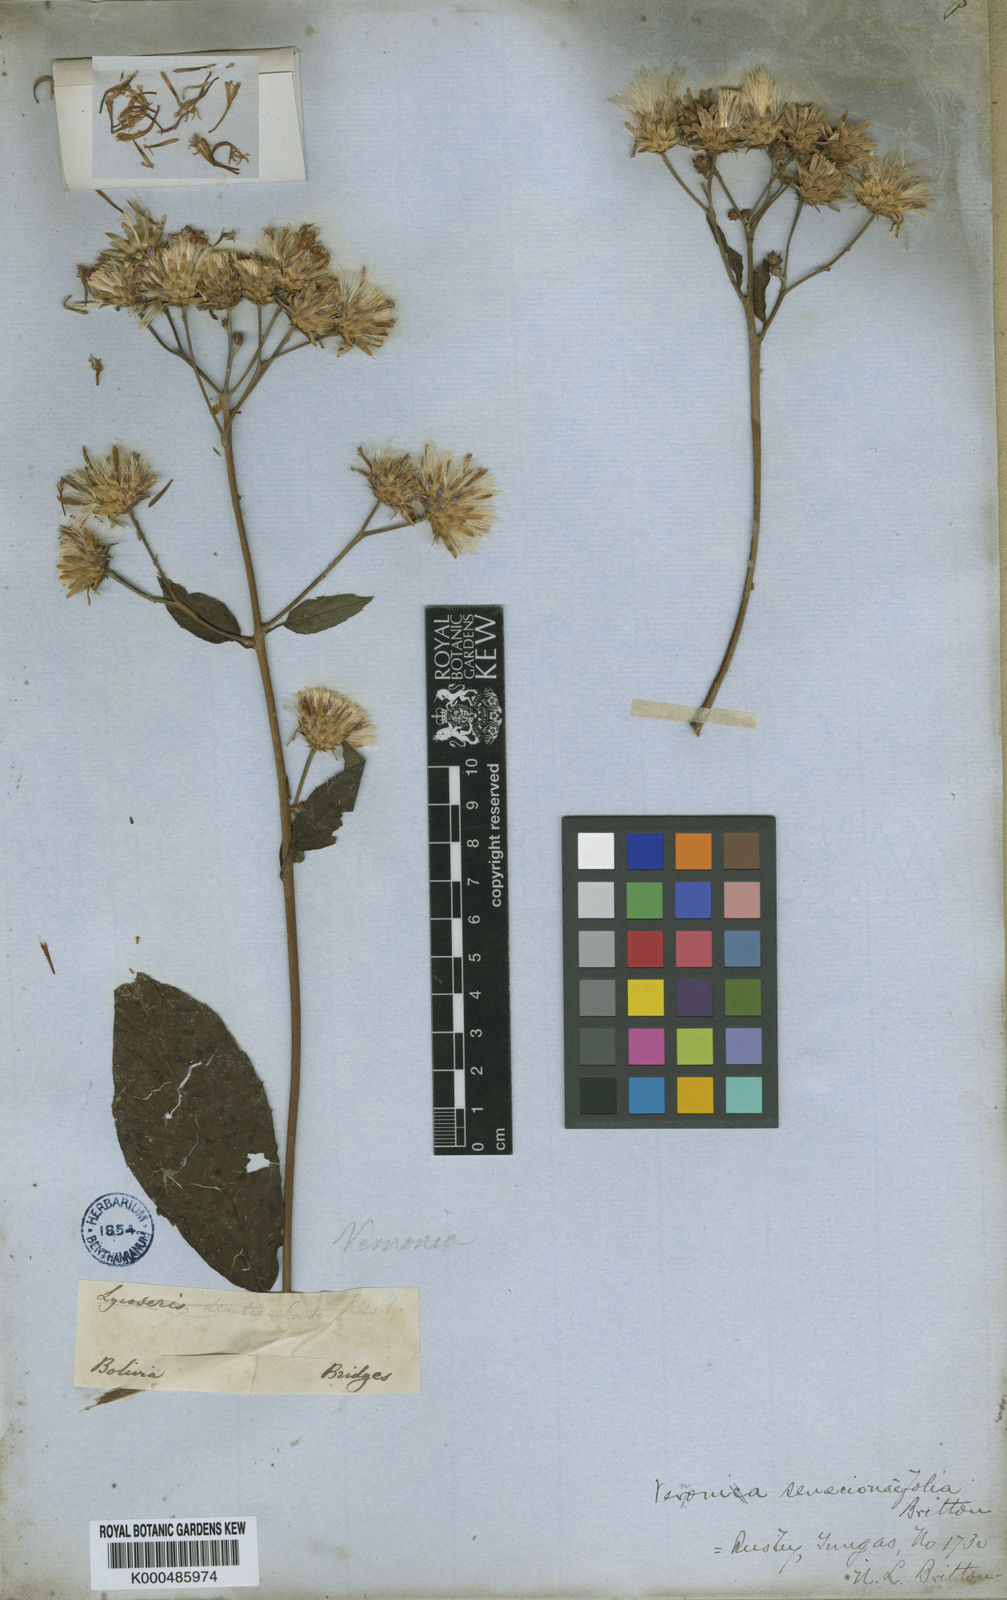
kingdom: Plantae
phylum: Tracheophyta
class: Magnoliopsida
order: Asterales
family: Asteraceae
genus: Quechualia
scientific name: Quechualia fulta
